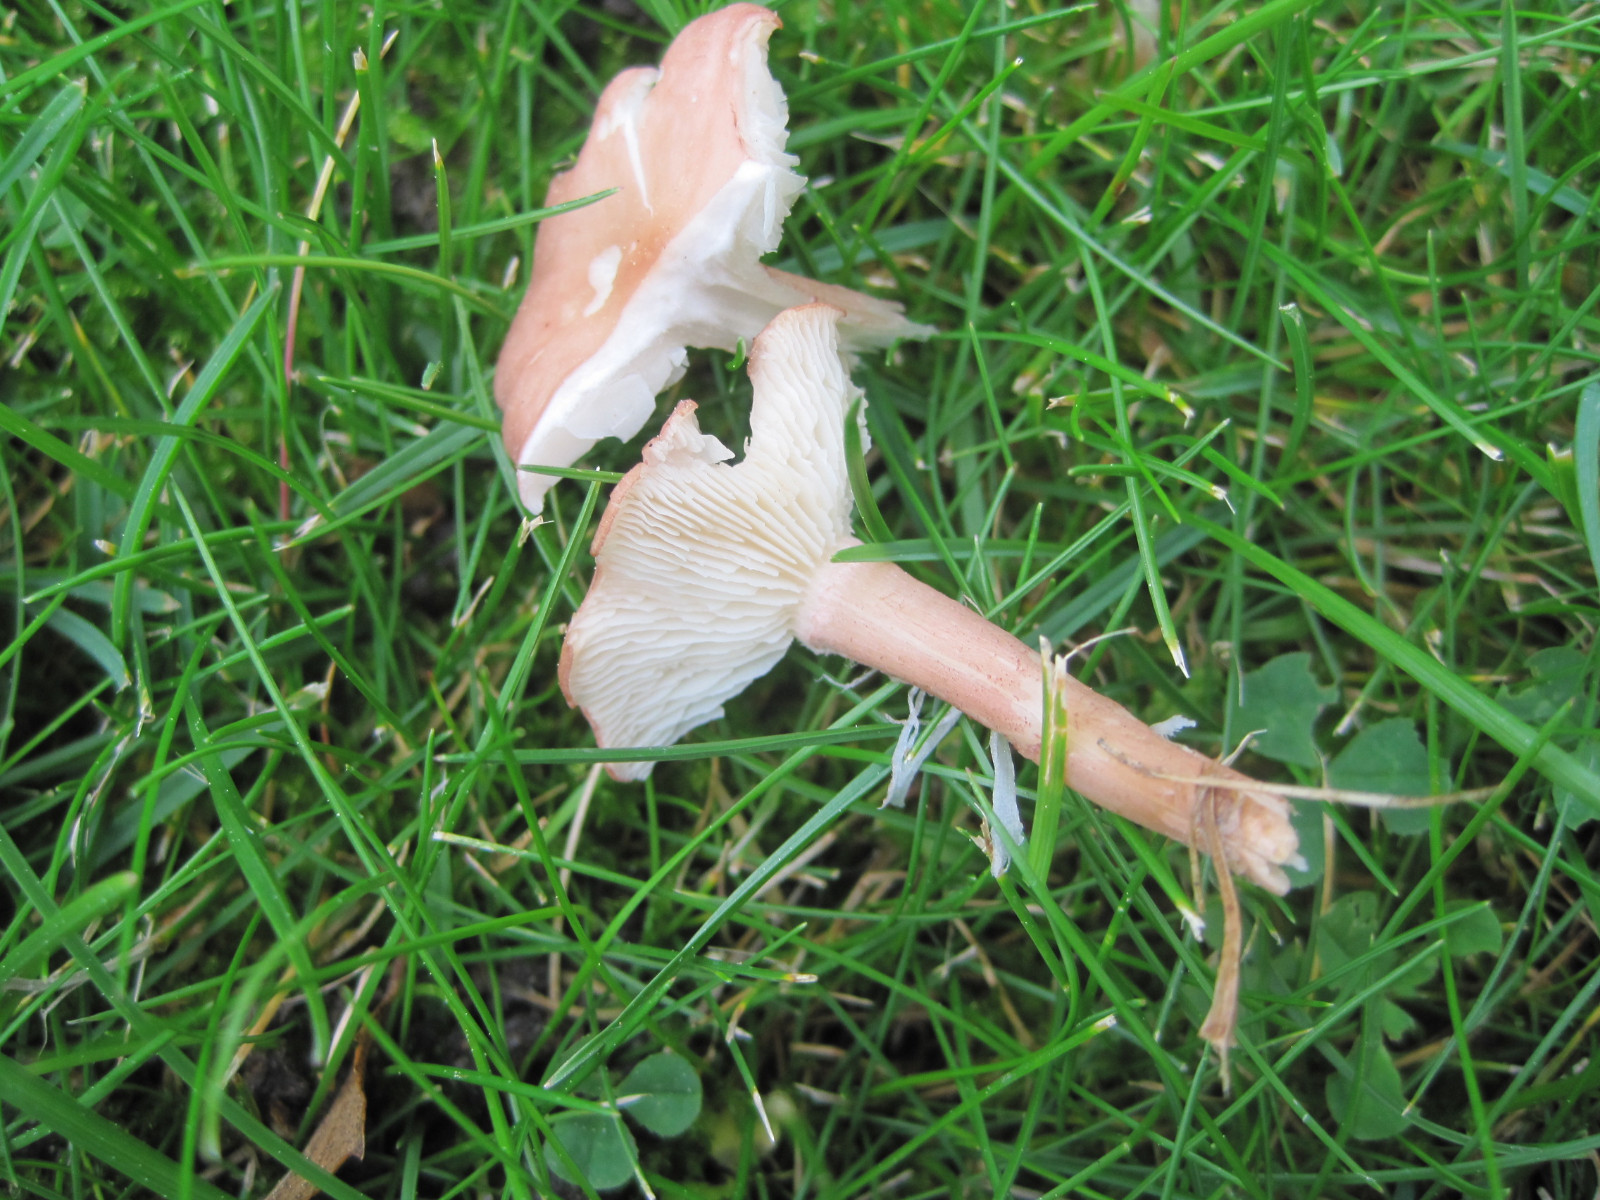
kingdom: Fungi
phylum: Basidiomycota
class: Agaricomycetes
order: Agaricales
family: Lyophyllaceae
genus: Calocybe
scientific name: Calocybe carnea
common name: rosa fagerhat
